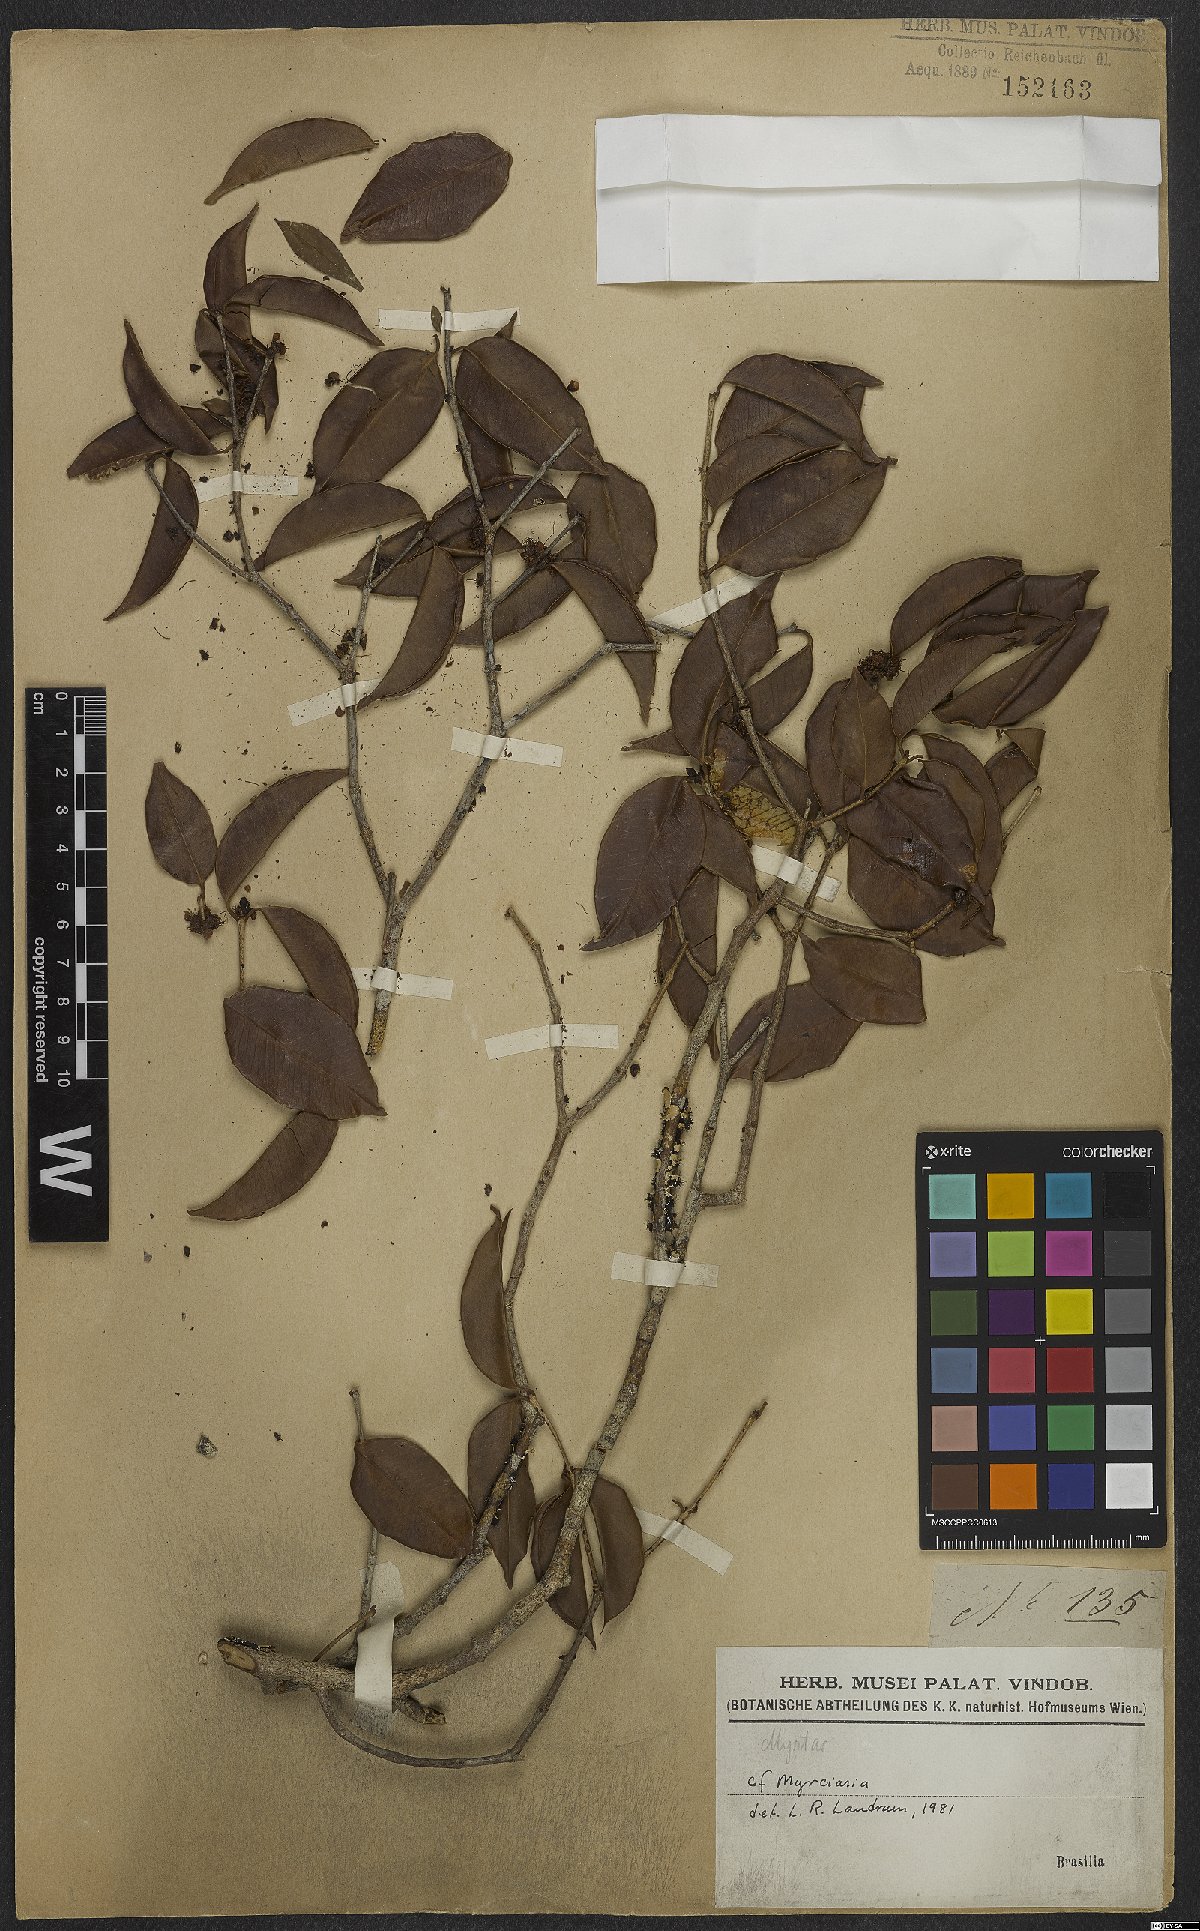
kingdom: Plantae
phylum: Tracheophyta
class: Magnoliopsida
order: Myrtales
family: Myrtaceae
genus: Myrciaria
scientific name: Myrciaria
